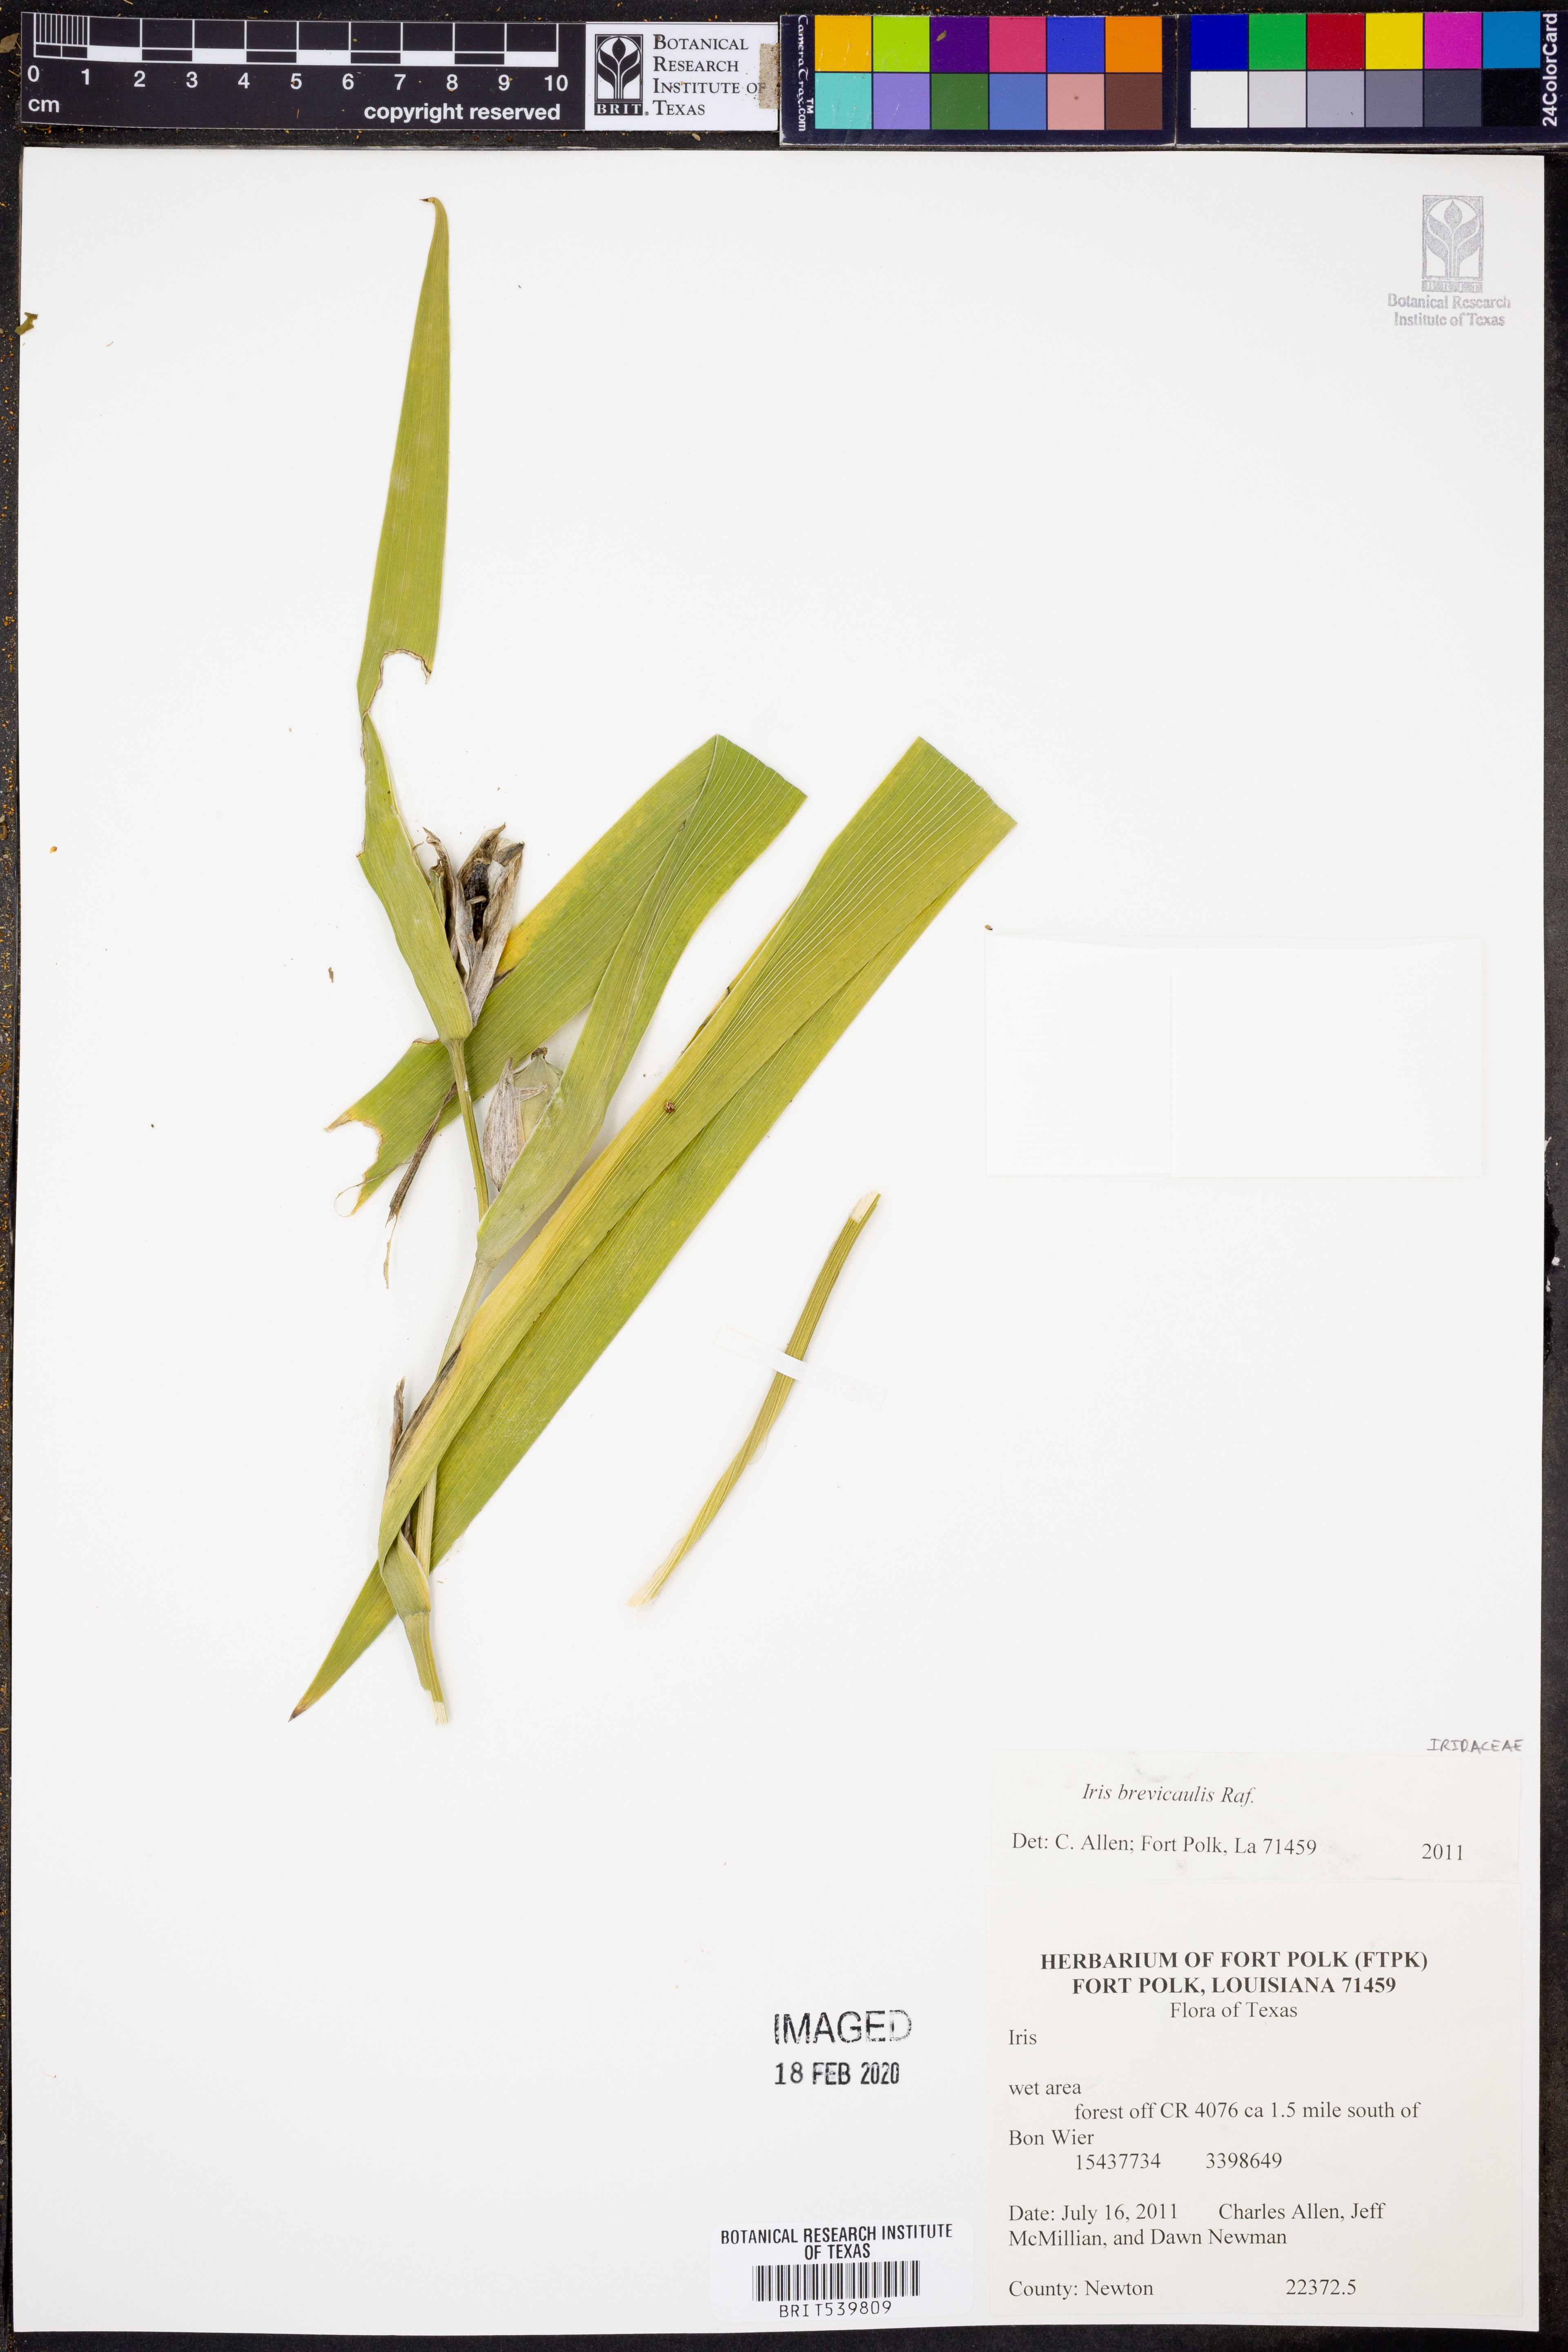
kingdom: Plantae
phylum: Tracheophyta
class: Liliopsida
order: Asparagales
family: Iridaceae
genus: Iris
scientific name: Iris brevicaulis
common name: Zigzag iris
